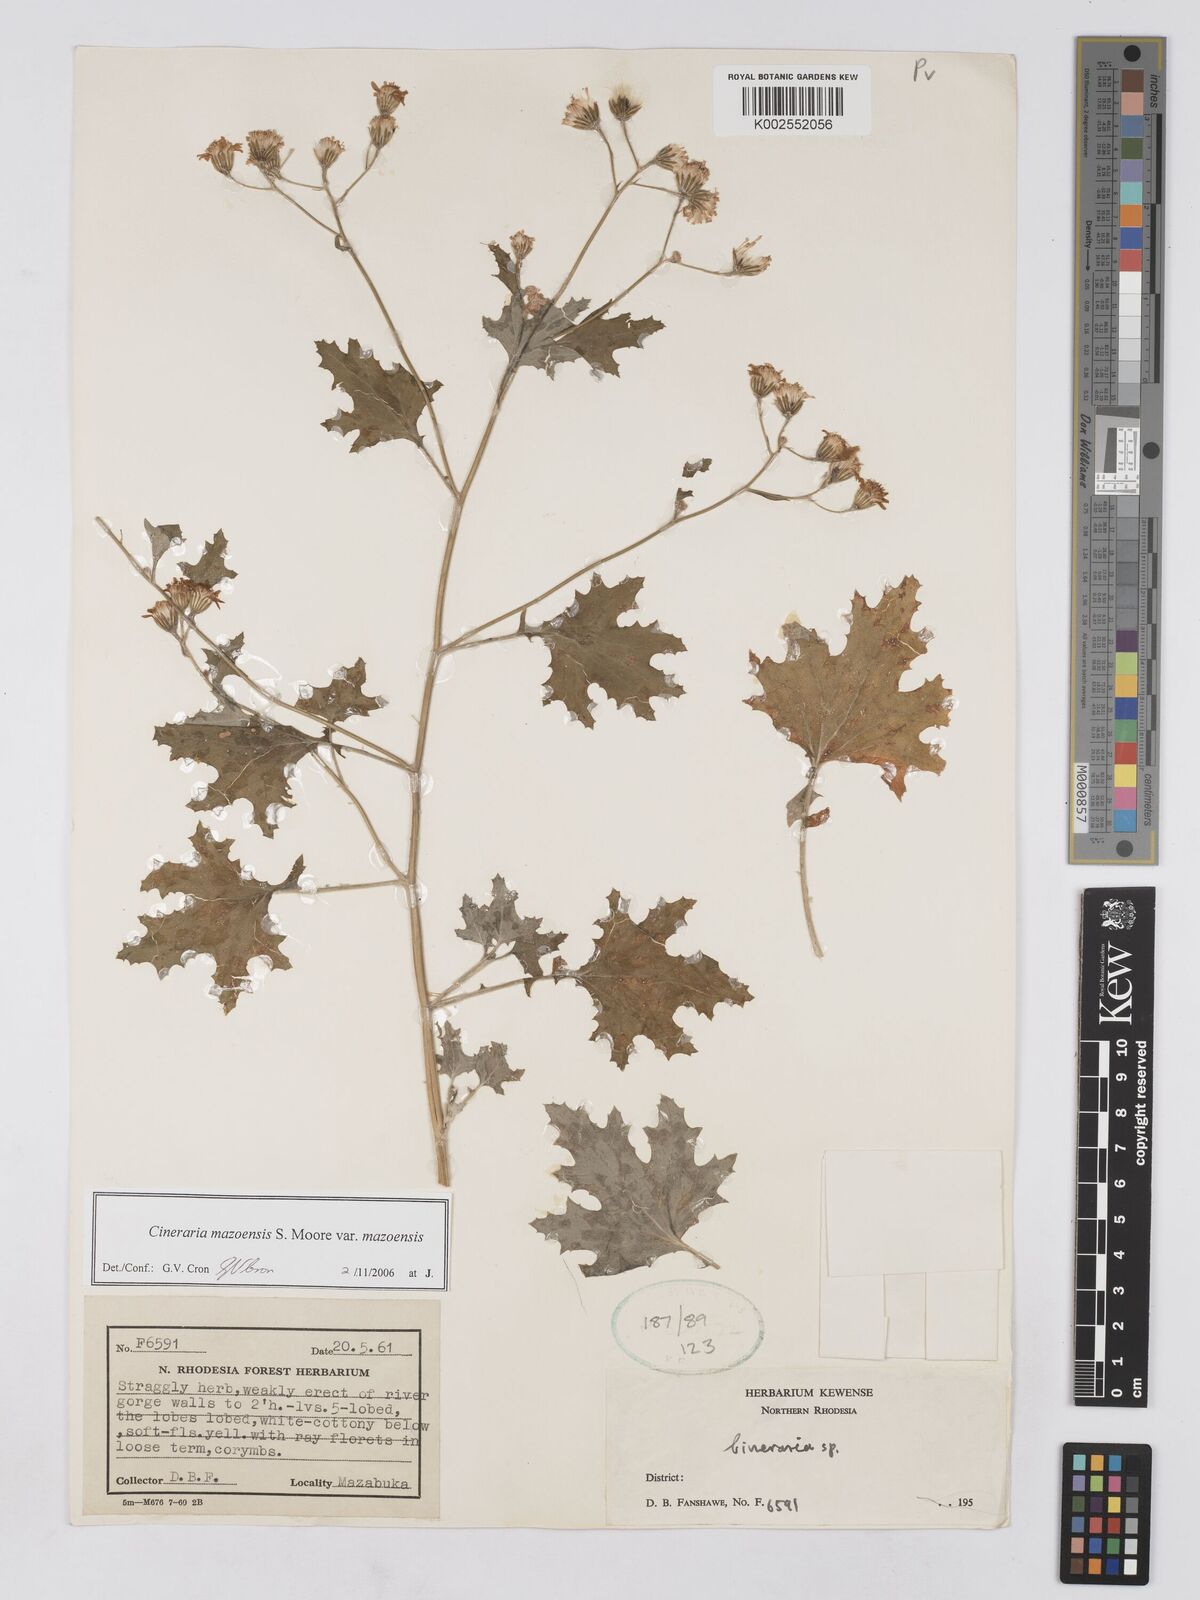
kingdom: Plantae
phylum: Tracheophyta
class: Magnoliopsida
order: Asterales
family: Asteraceae
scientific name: Asteraceae
